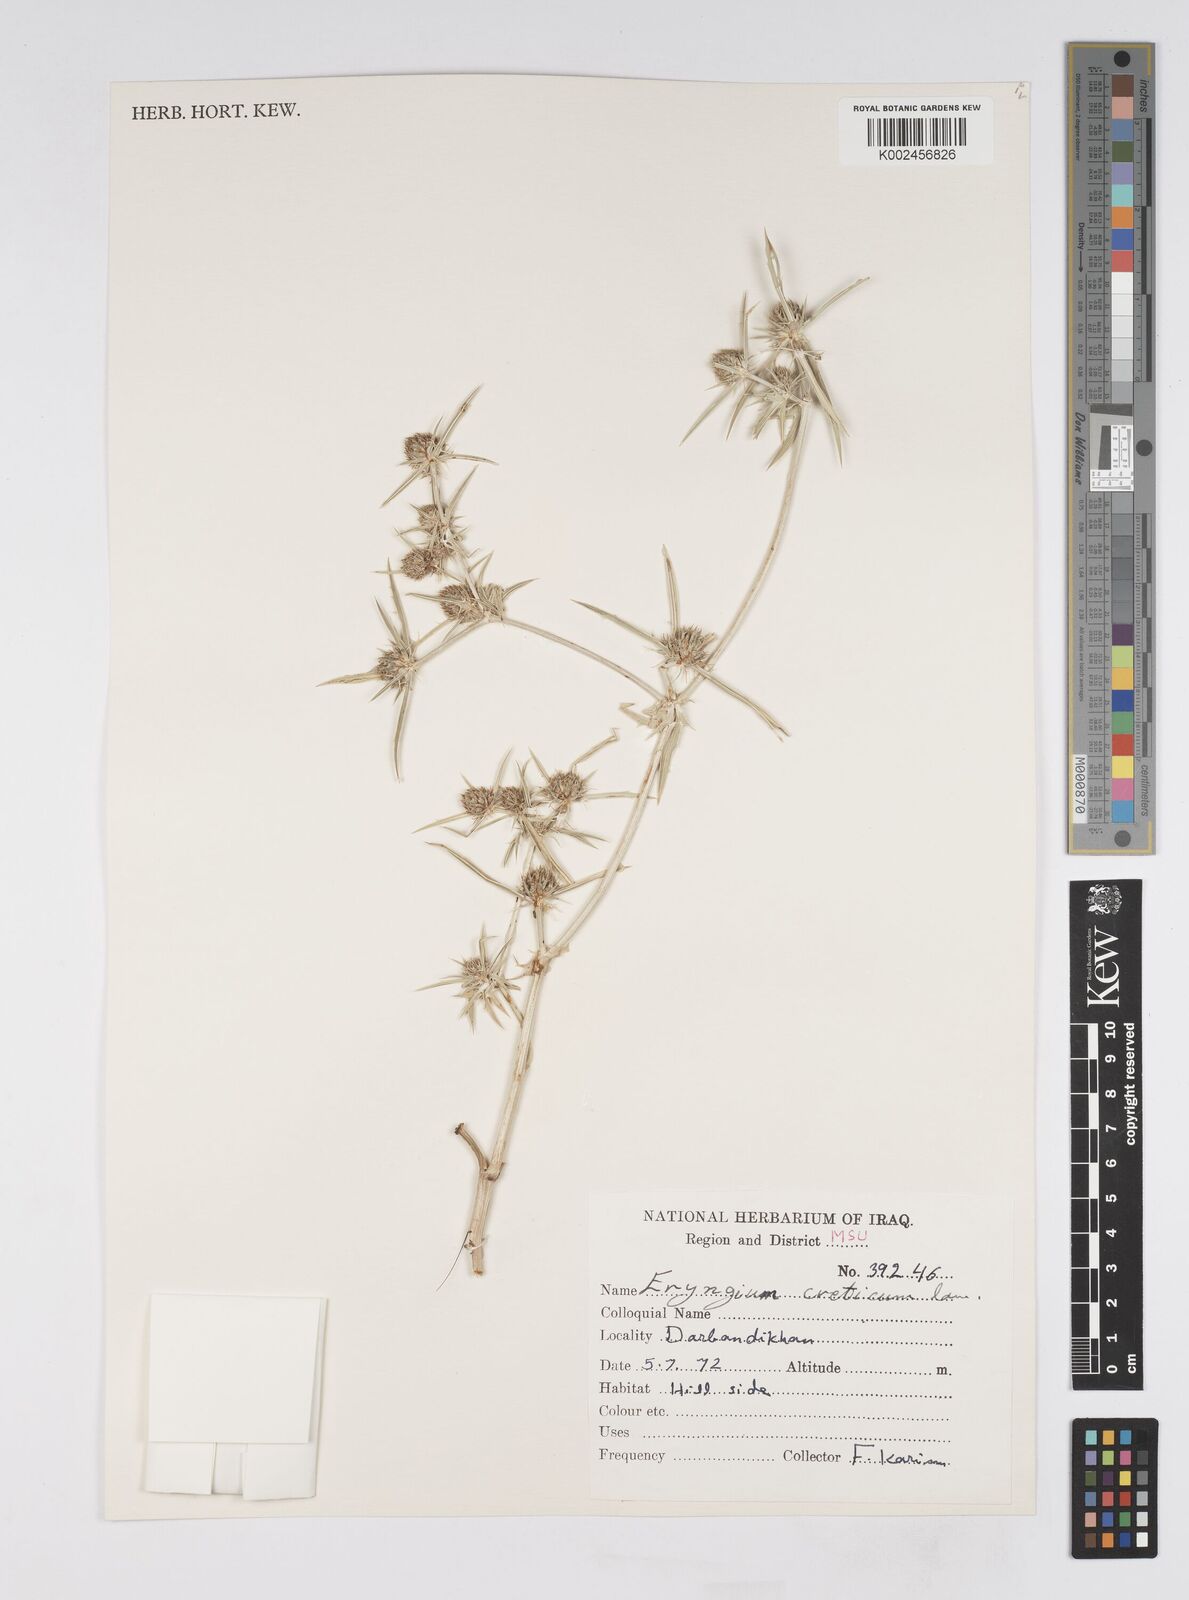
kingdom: Plantae
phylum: Tracheophyta
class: Magnoliopsida
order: Apiales
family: Apiaceae
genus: Eryngium
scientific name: Eryngium creticum
